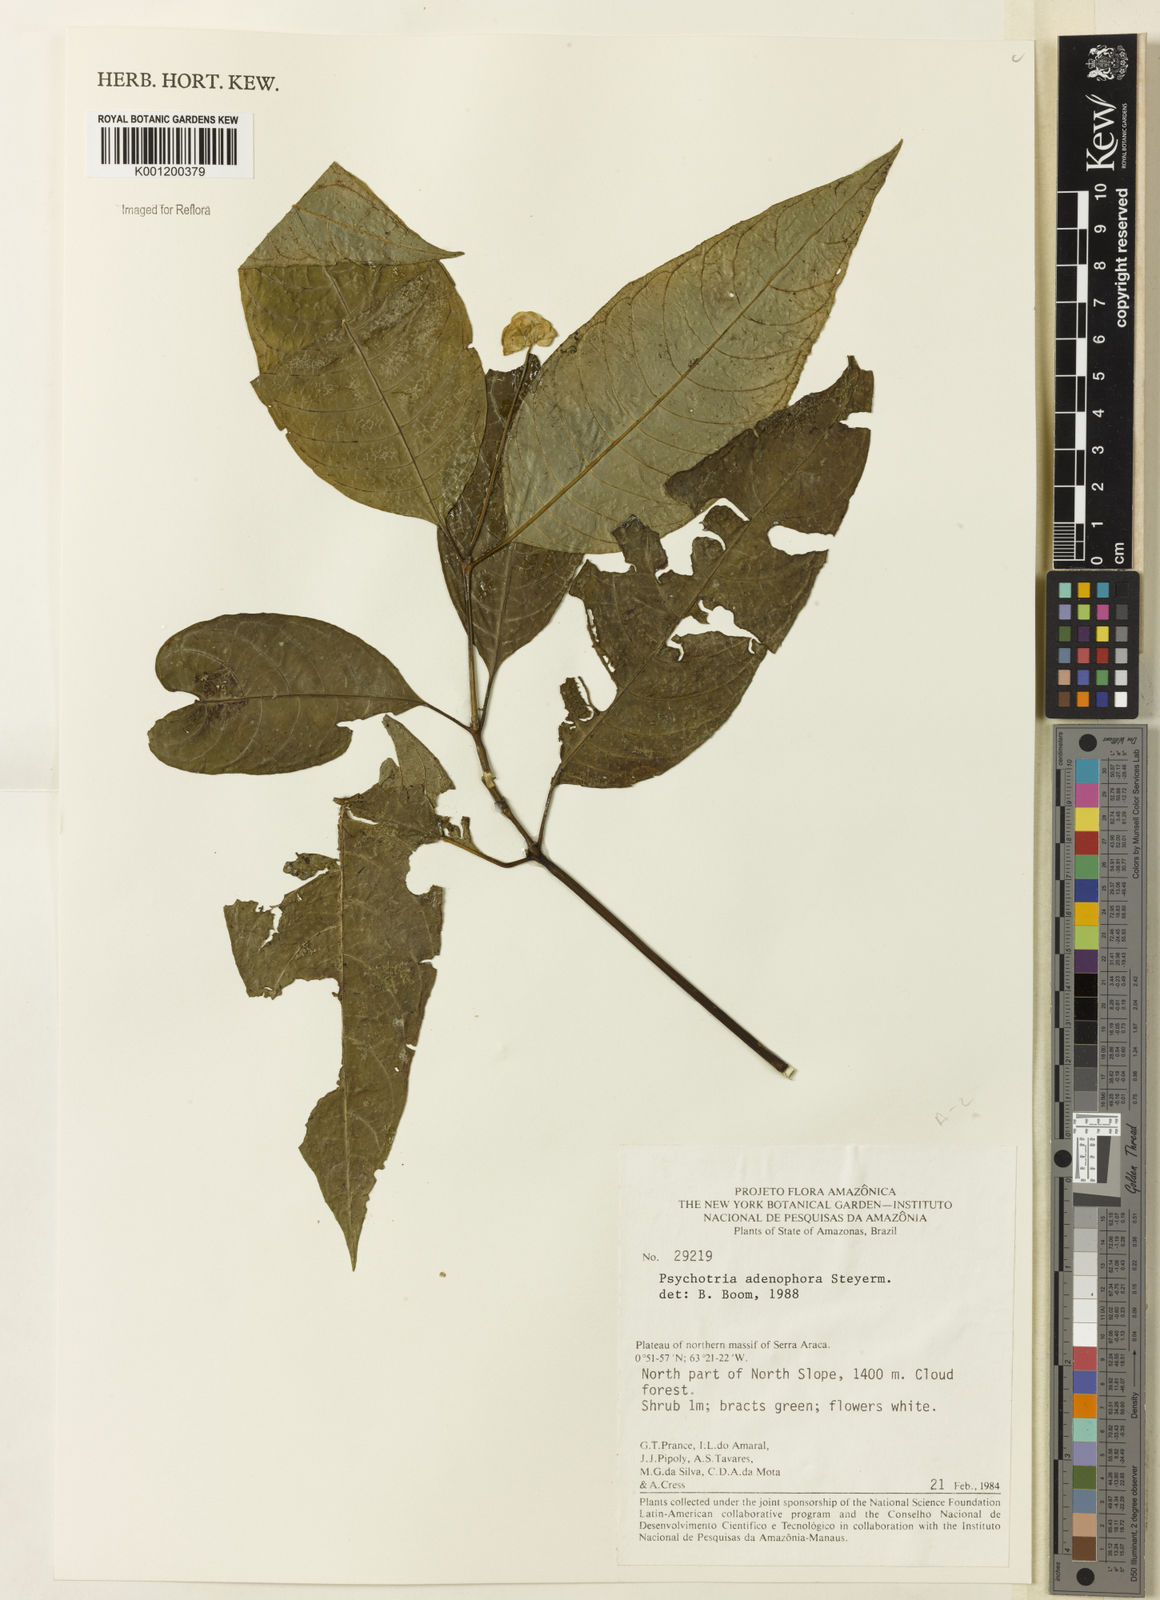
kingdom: Plantae
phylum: Tracheophyta
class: Magnoliopsida
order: Gentianales
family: Rubiaceae
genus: Palicourea
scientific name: Palicourea adenophora
